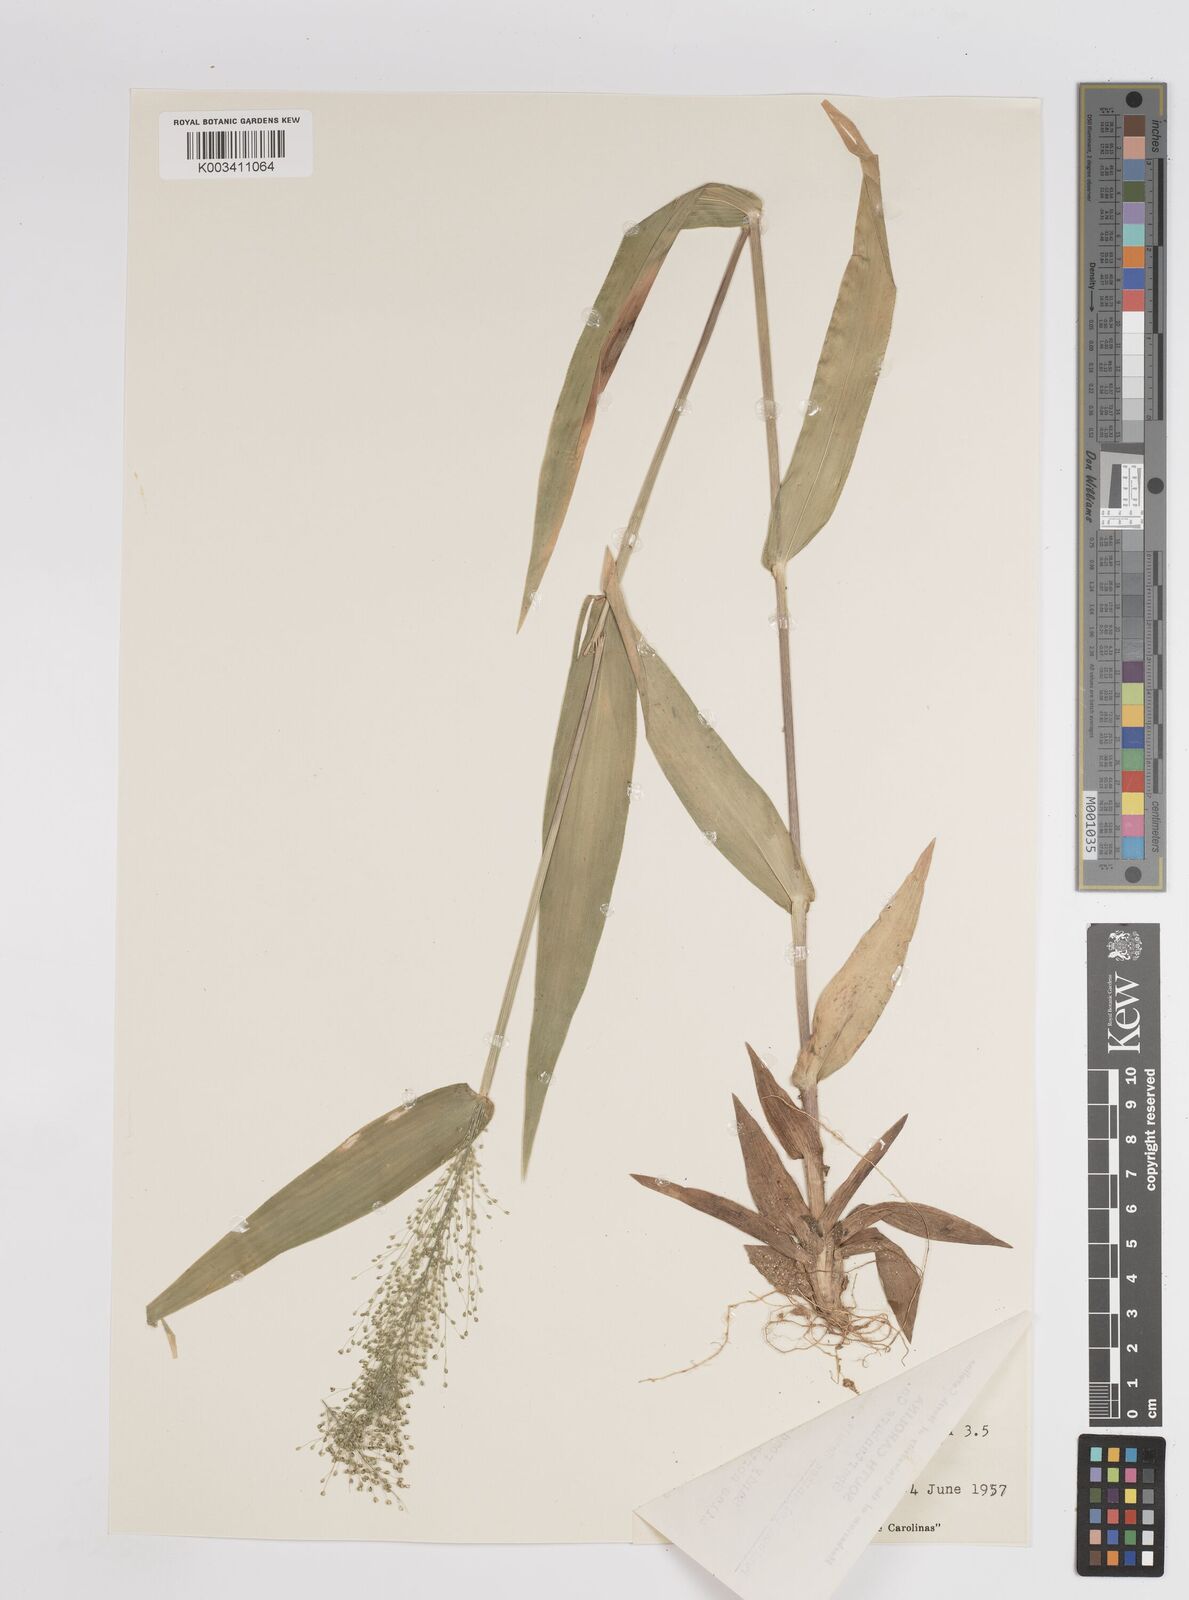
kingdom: Plantae
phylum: Tracheophyta
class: Liliopsida
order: Poales
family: Poaceae
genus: Dichanthelium
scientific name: Dichanthelium polyanthes
